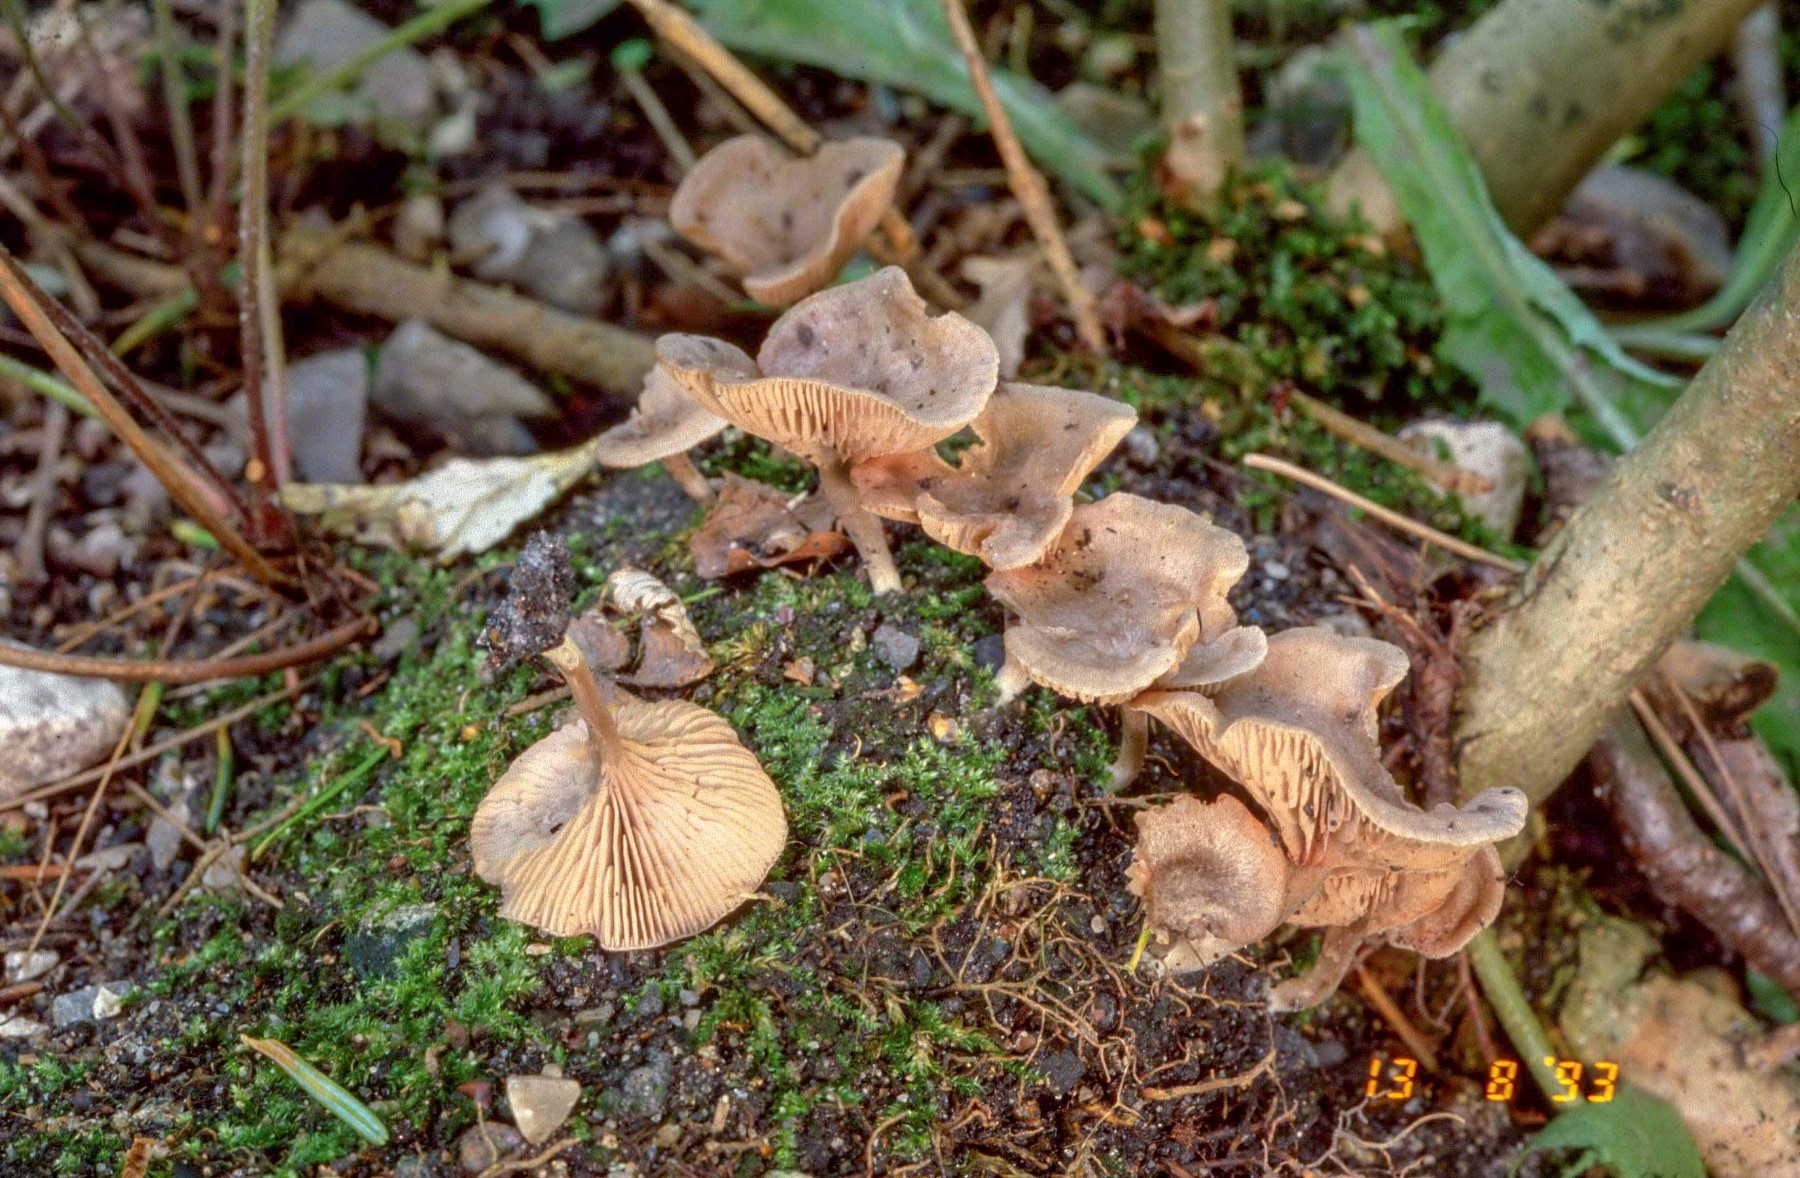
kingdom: Fungi
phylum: Basidiomycota
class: Agaricomycetes
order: Agaricales
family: Entolomataceae
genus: Entoloma
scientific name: Entoloma undatum
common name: bæltet rødblad
